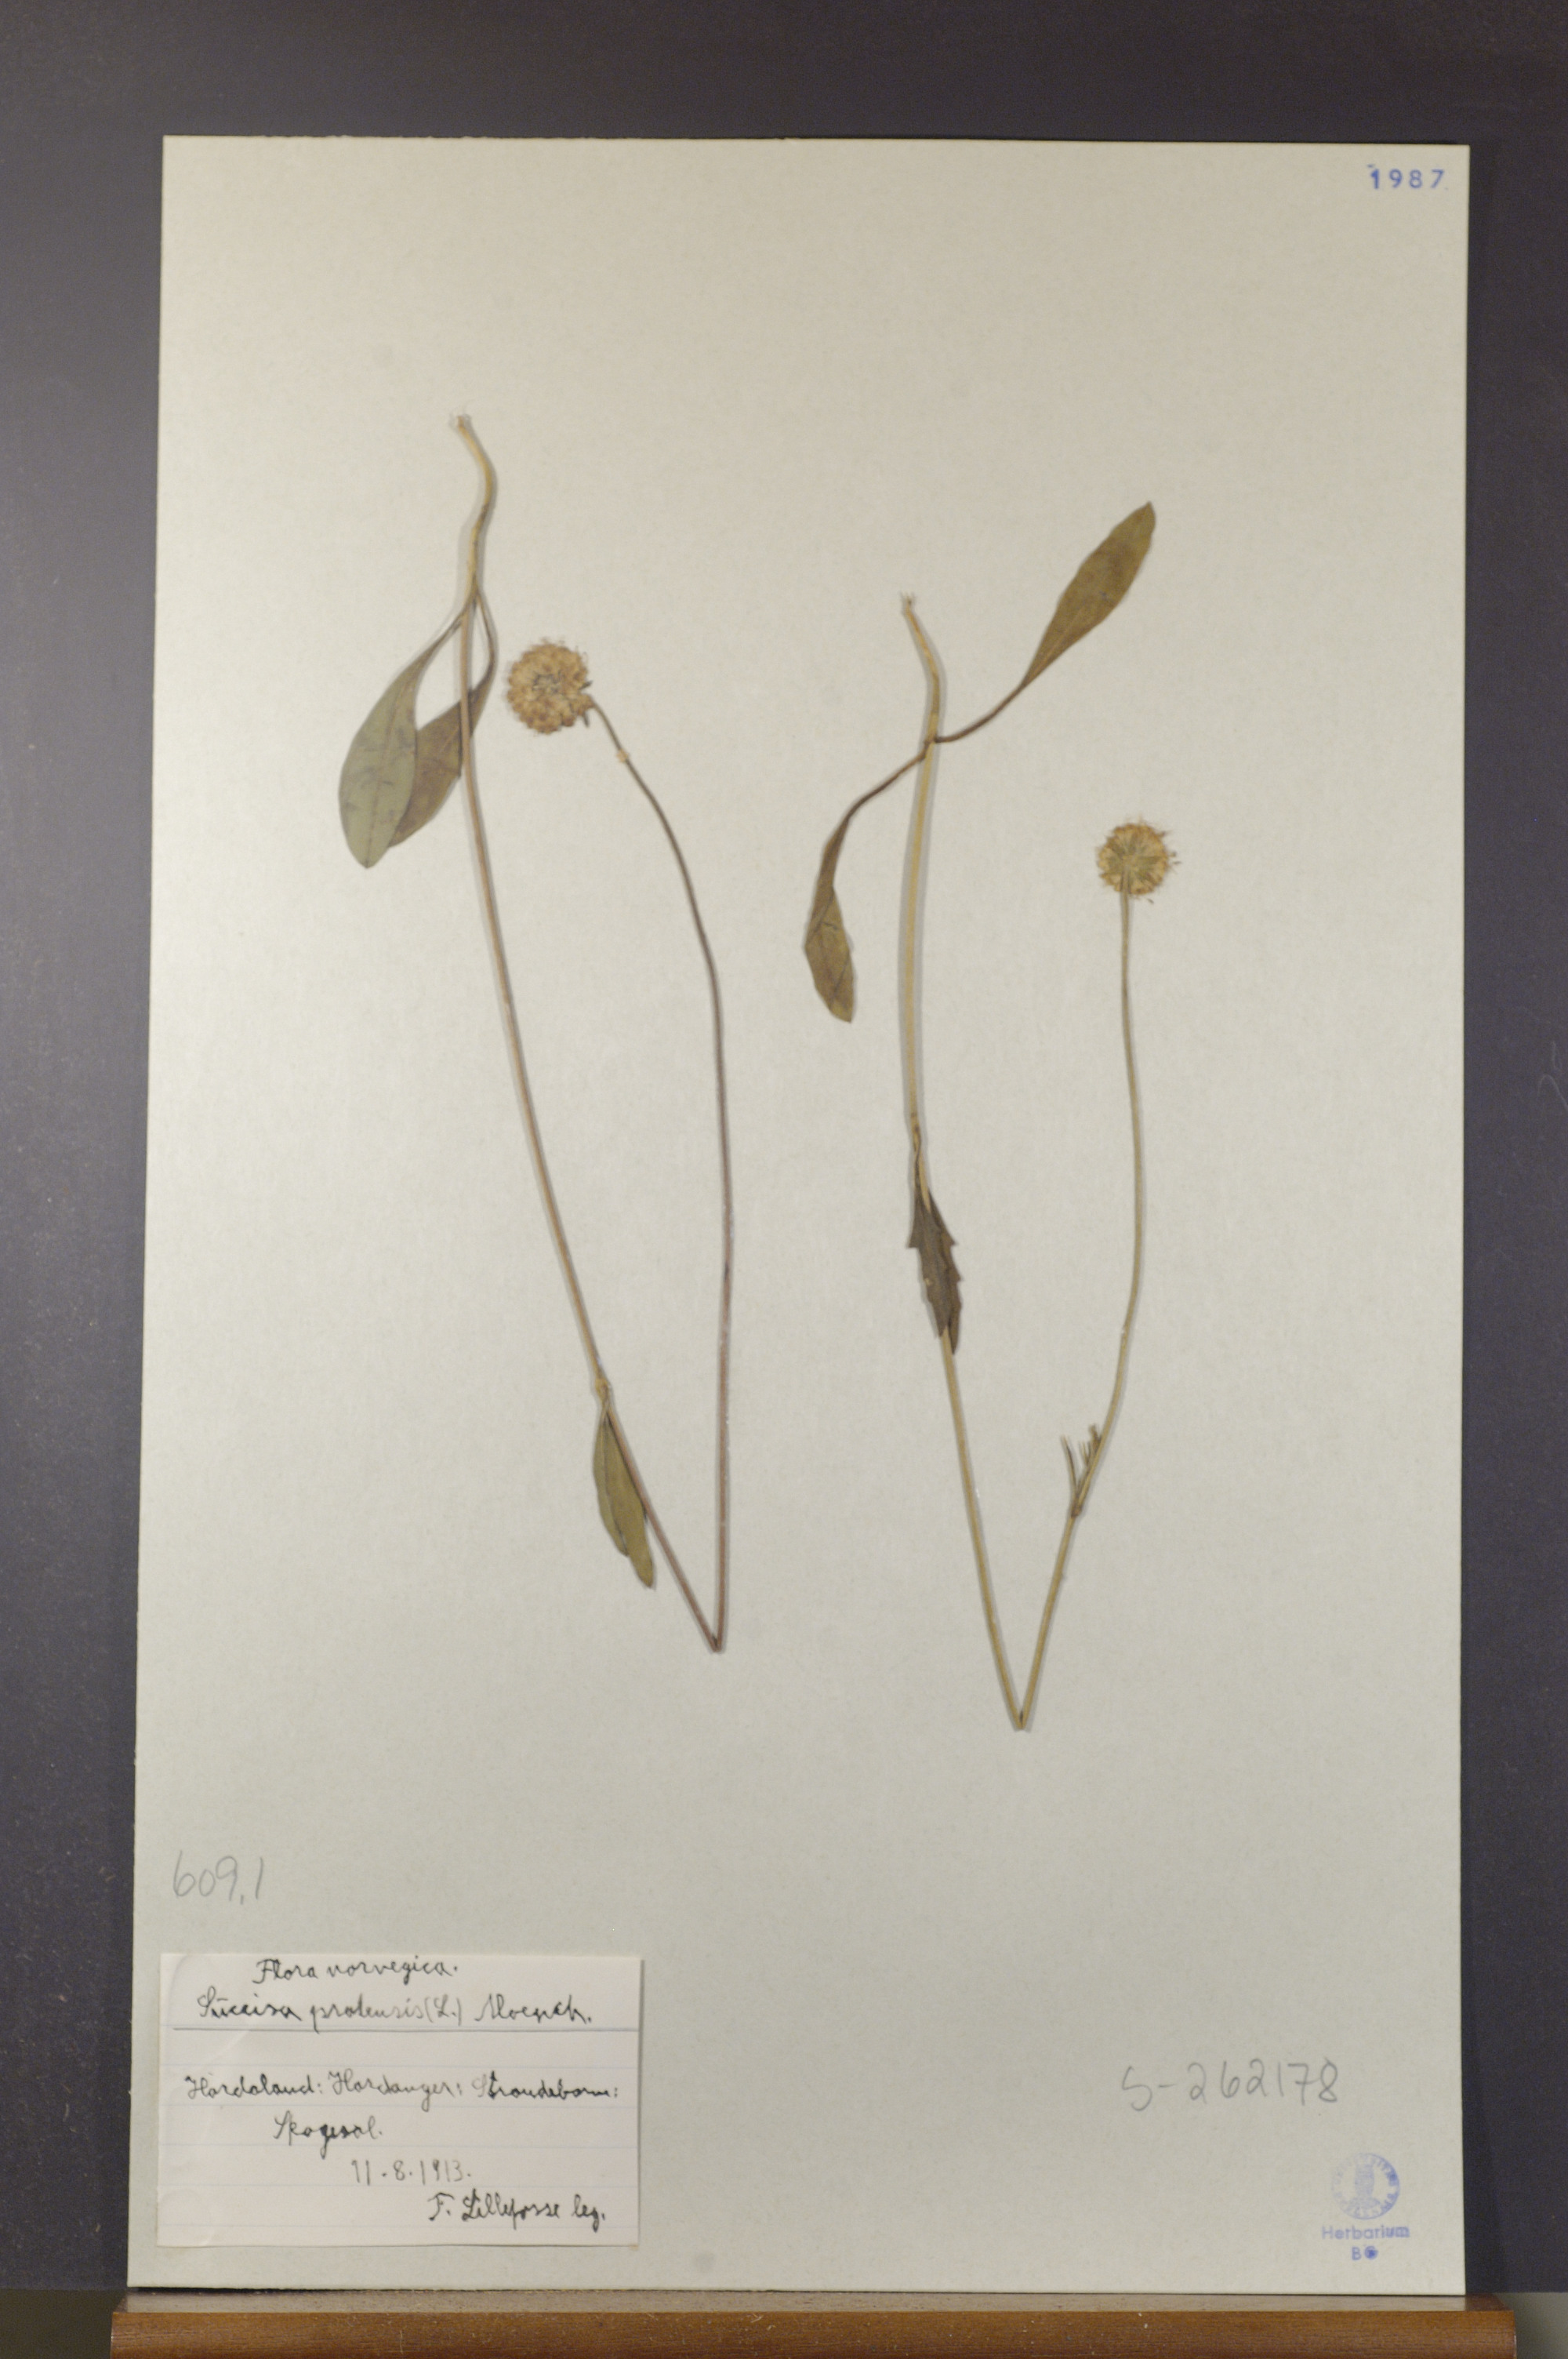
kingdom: Plantae
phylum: Tracheophyta
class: Magnoliopsida
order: Dipsacales
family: Caprifoliaceae
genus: Succisa
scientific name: Succisa pratensis
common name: Devil's-bit
